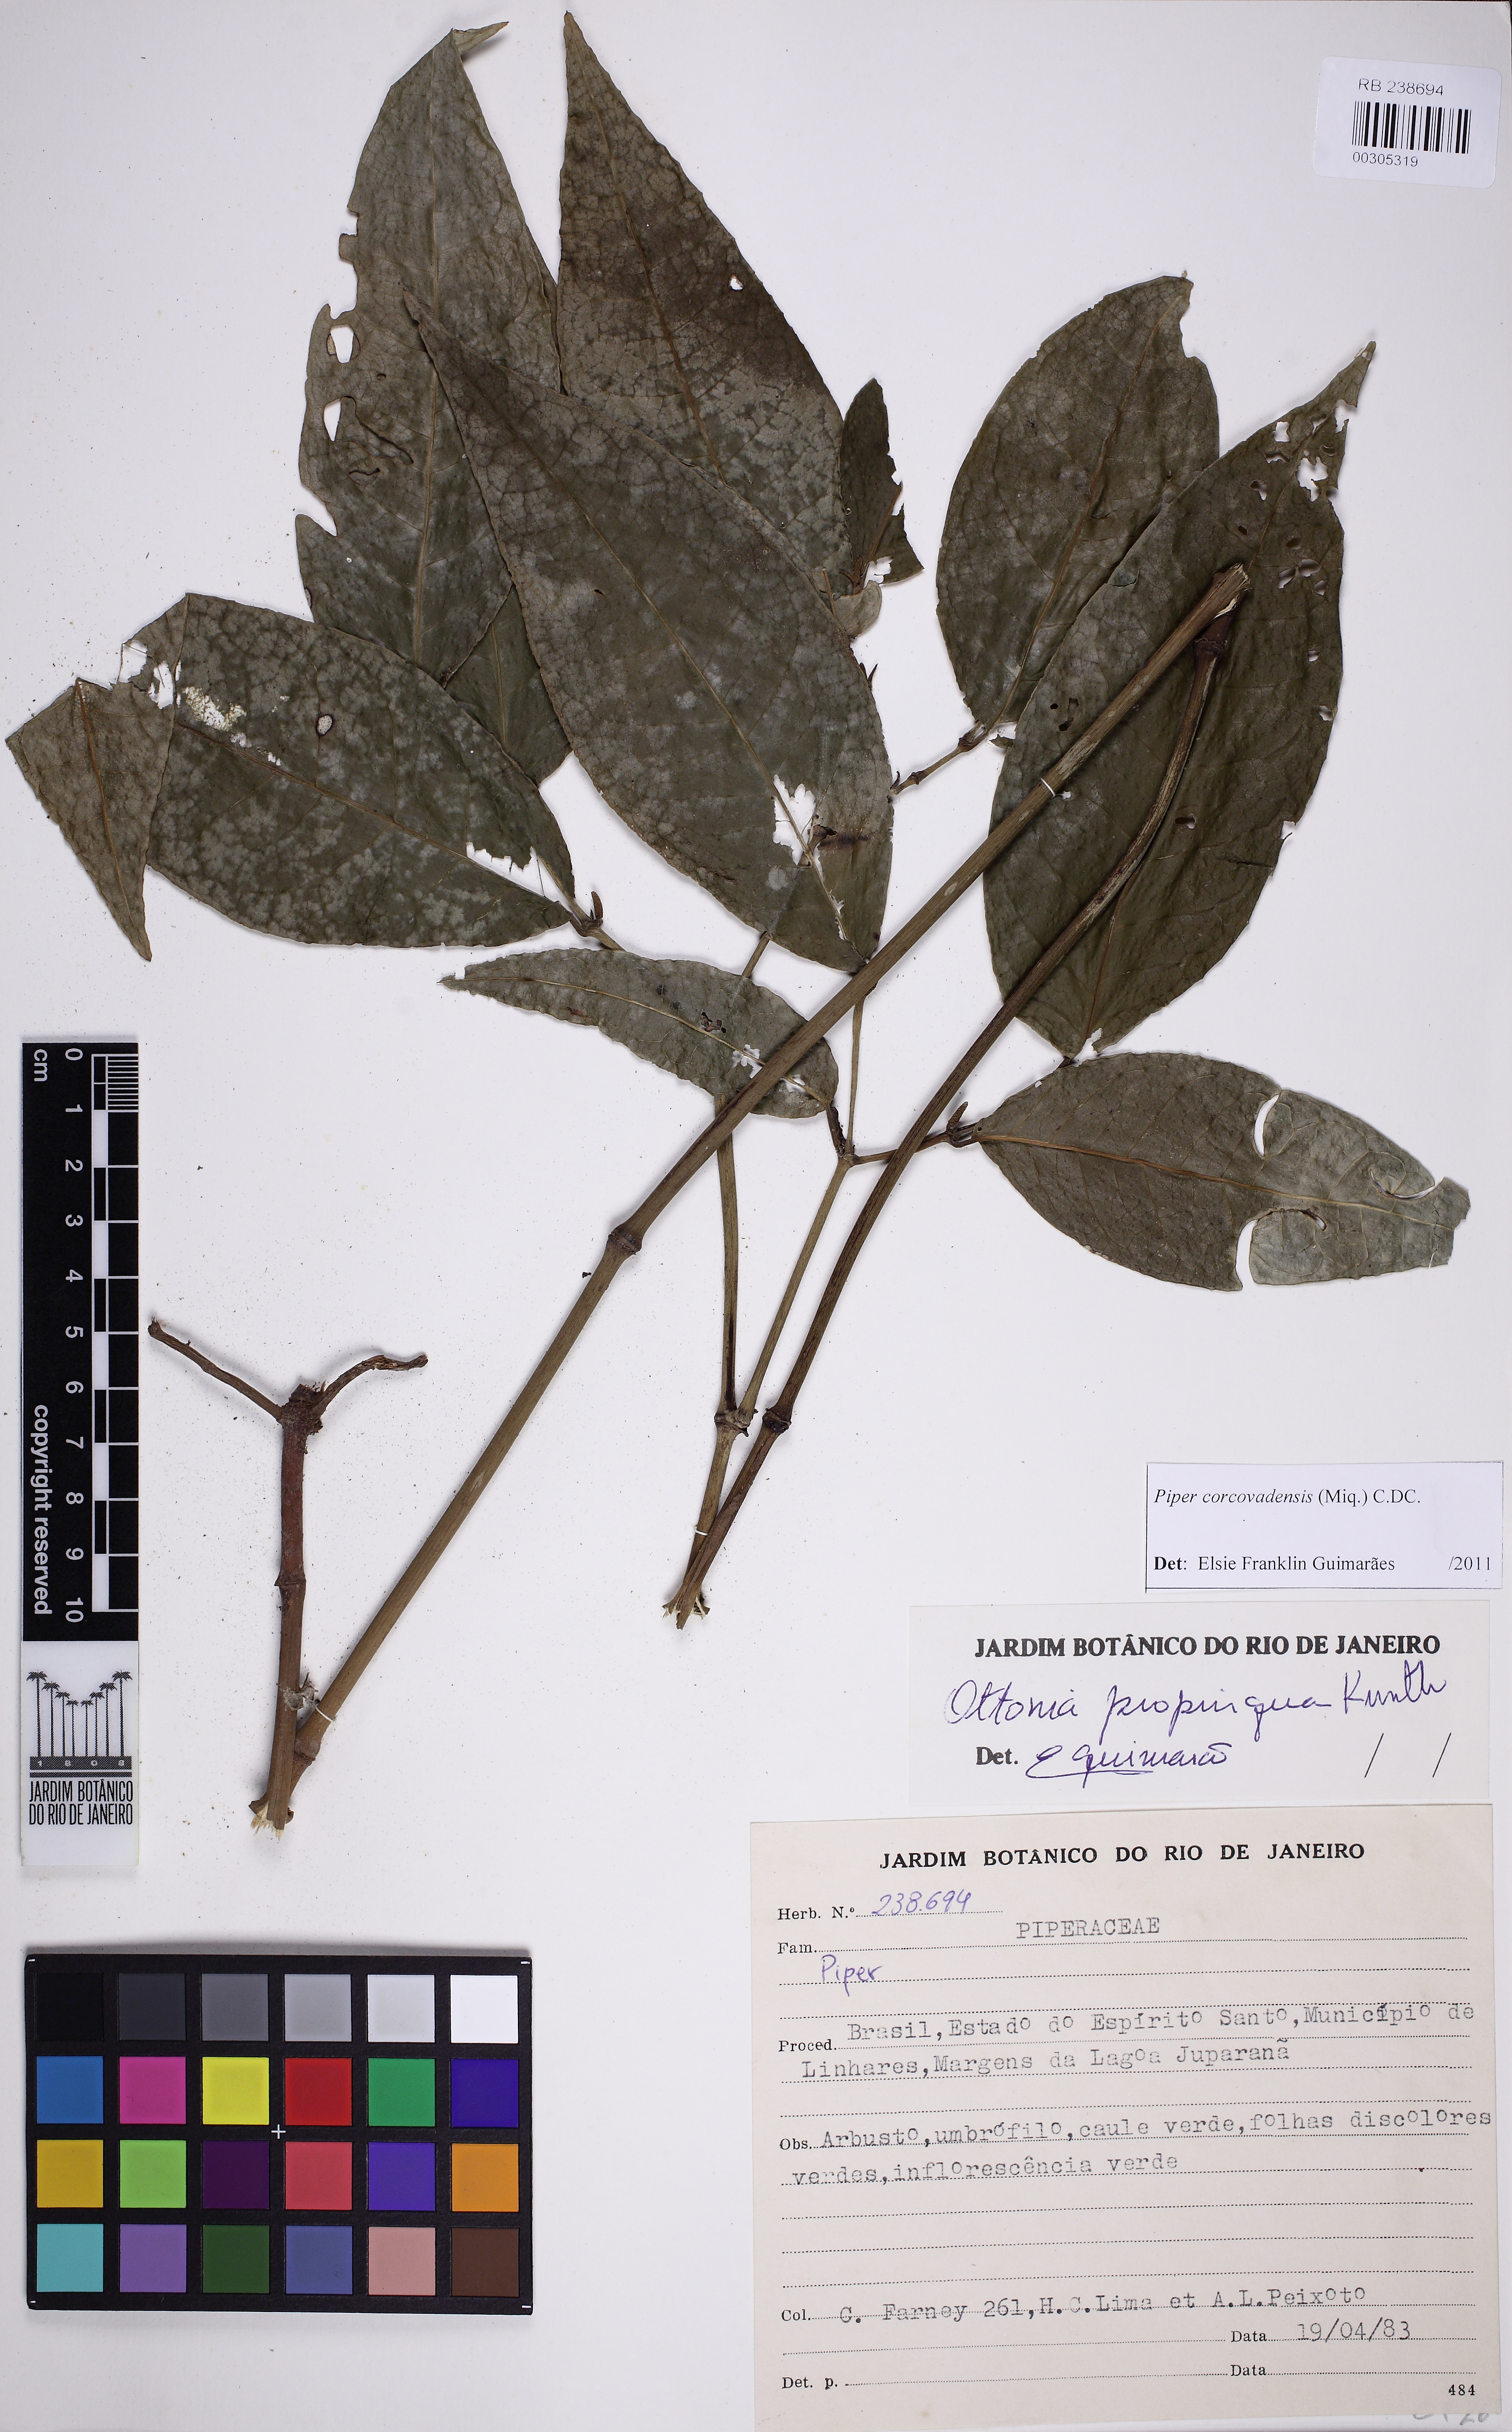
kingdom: Plantae
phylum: Tracheophyta
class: Magnoliopsida
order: Piperales
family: Piperaceae
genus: Piper
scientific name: Piper corcovadense
